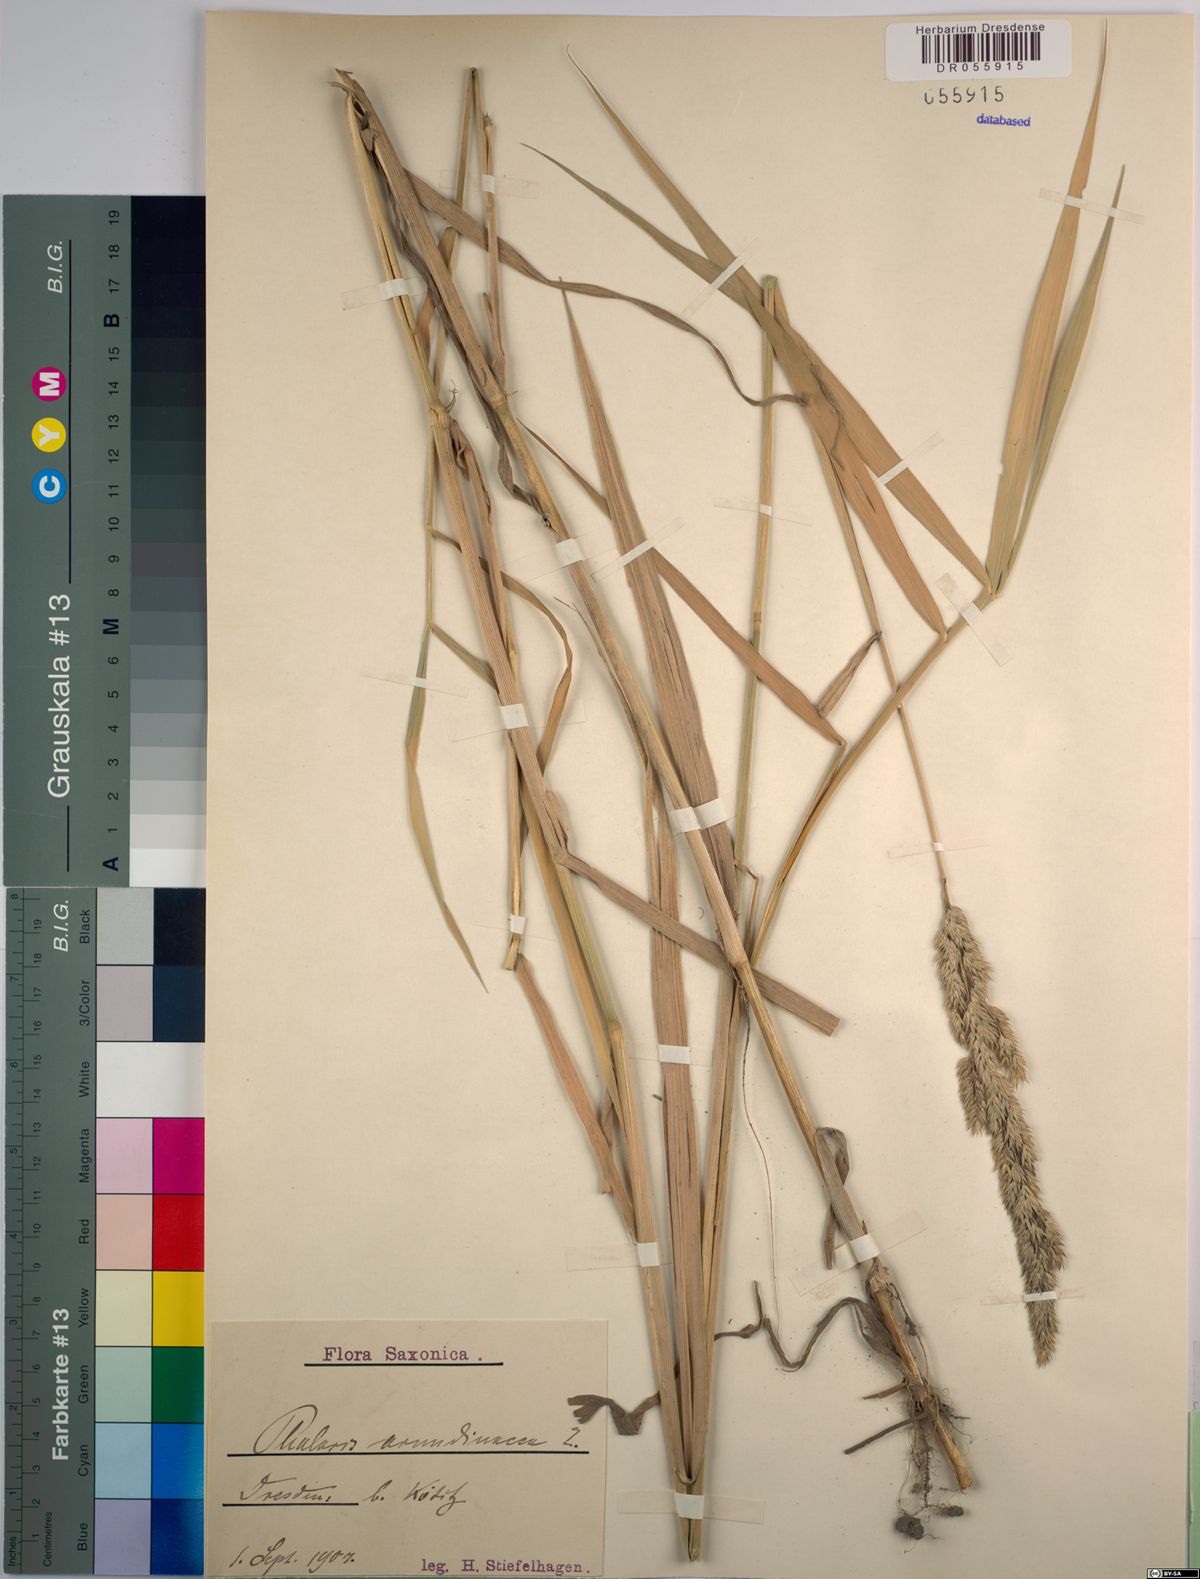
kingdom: Plantae
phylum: Tracheophyta
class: Liliopsida
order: Poales
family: Poaceae
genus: Phalaris
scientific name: Phalaris arundinacea
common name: Reed canary-grass
